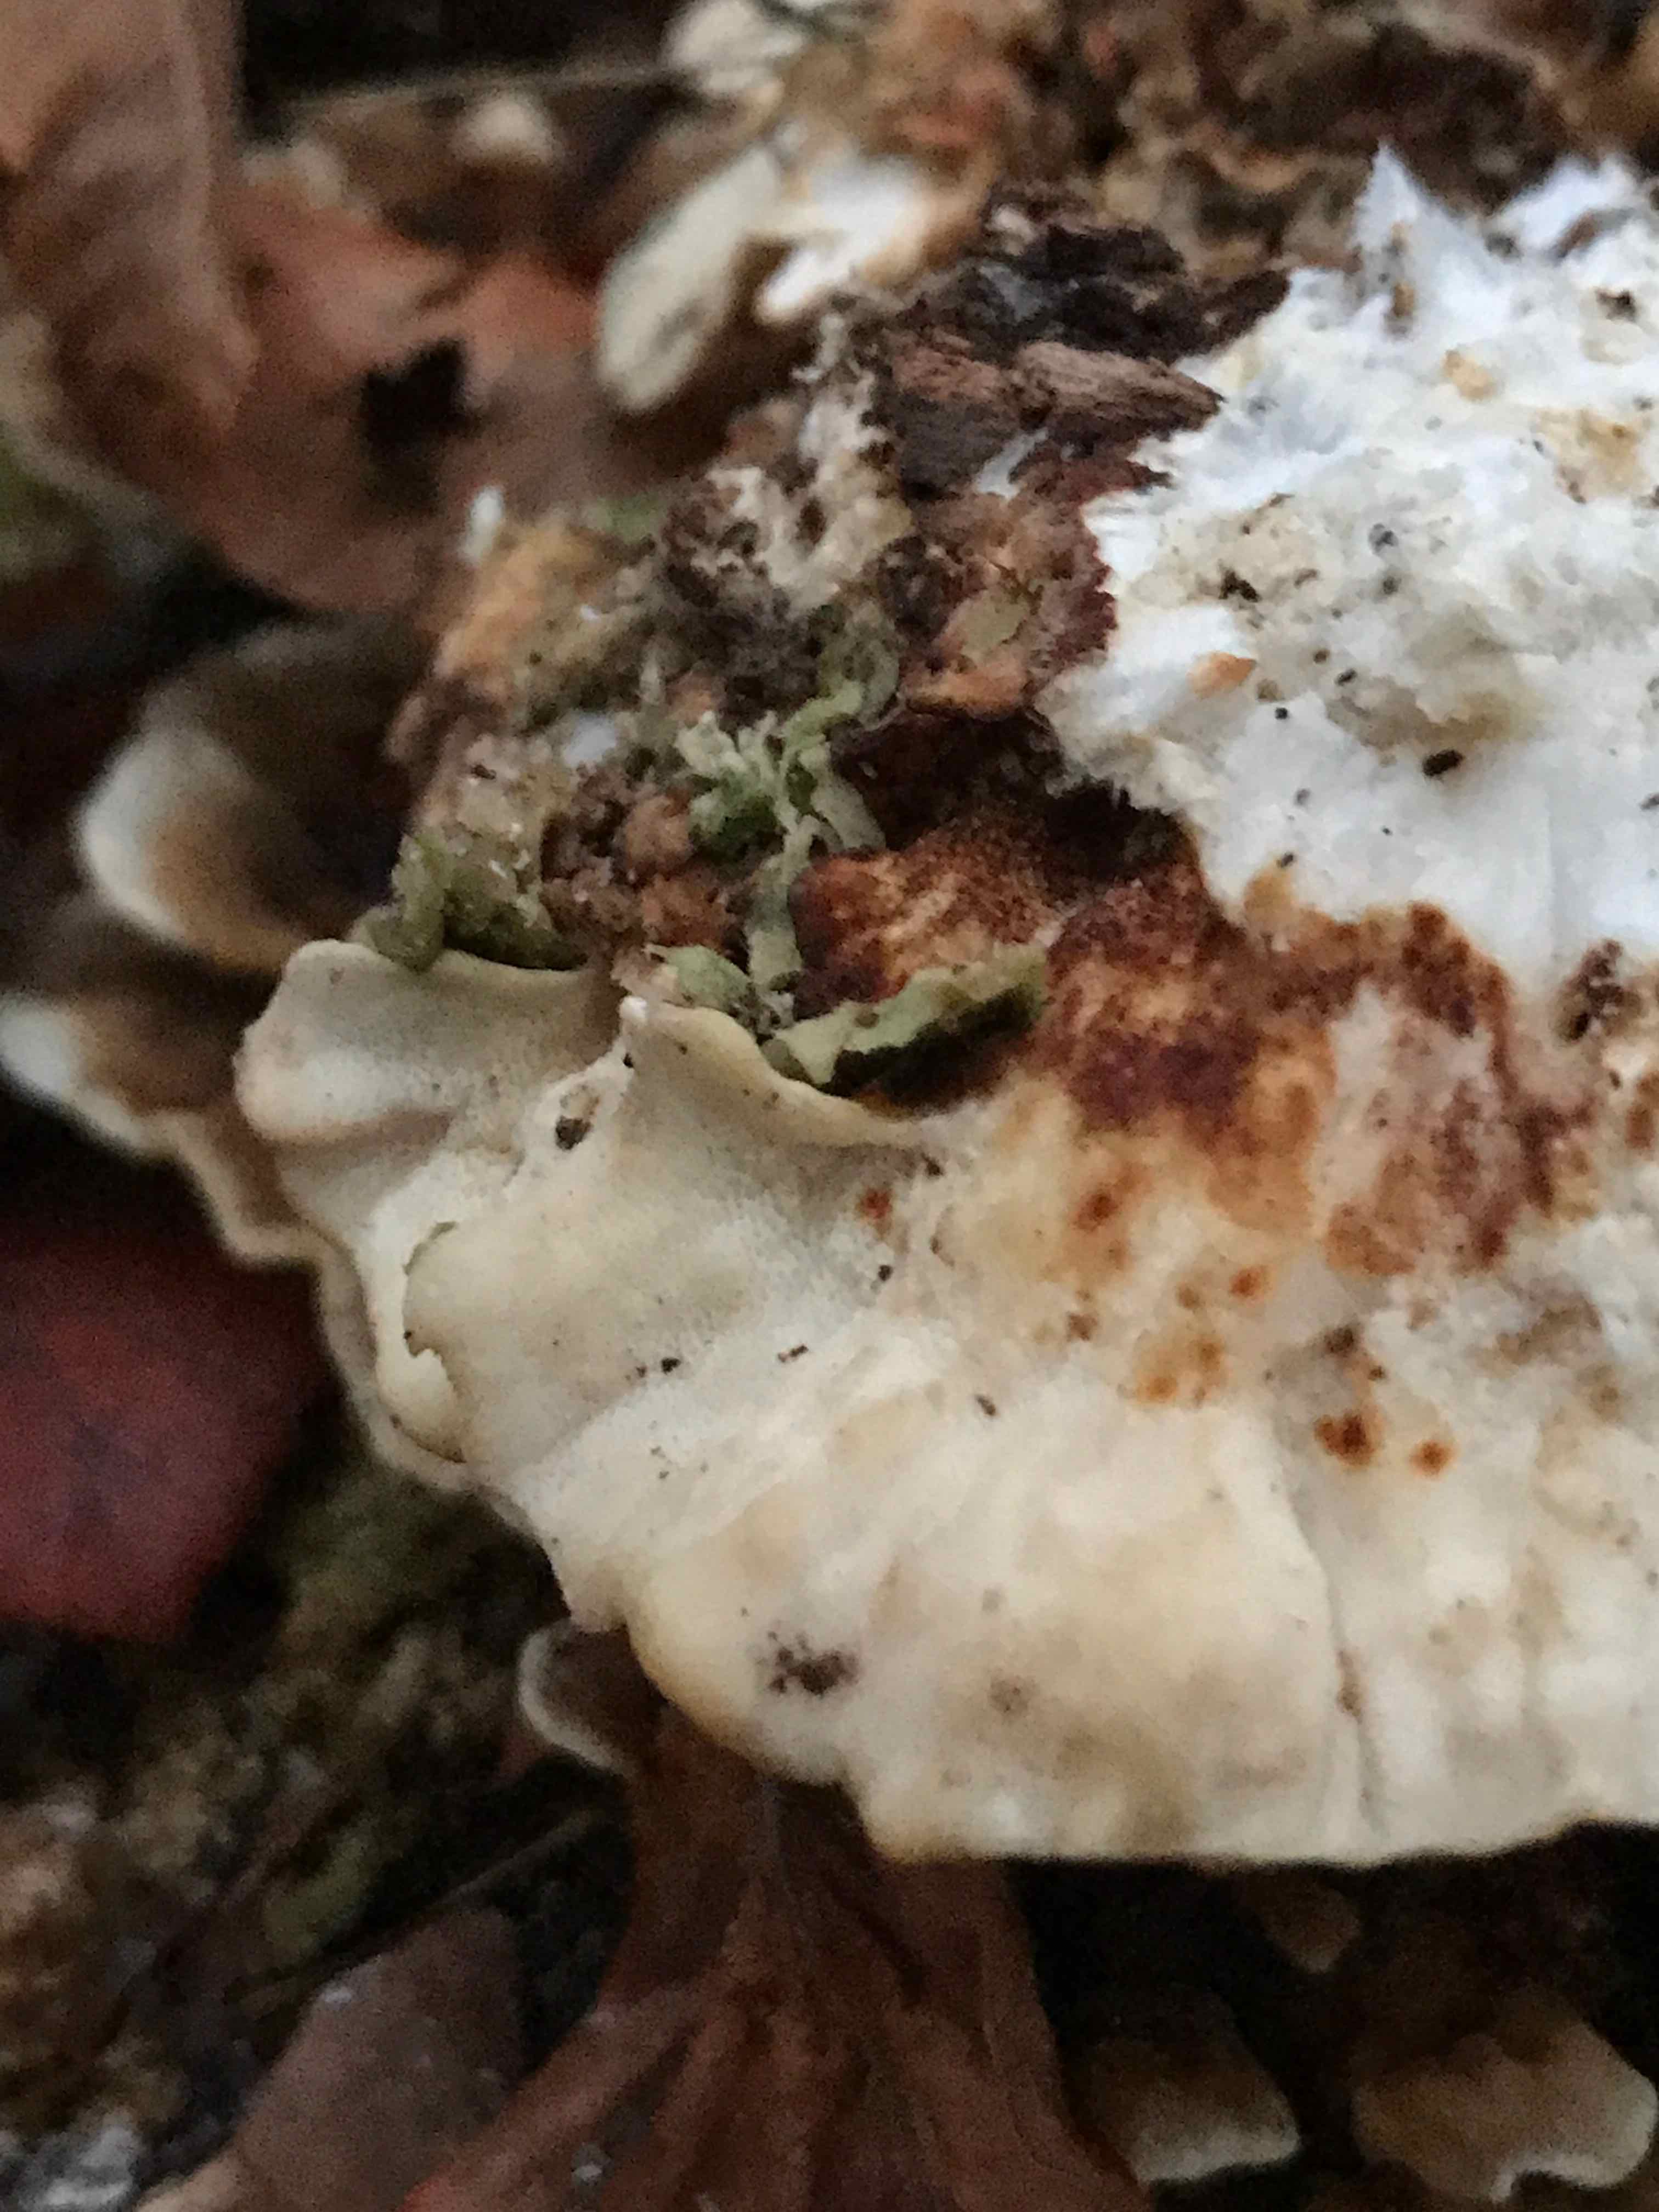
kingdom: Fungi
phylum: Basidiomycota
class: Agaricomycetes
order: Polyporales
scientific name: Polyporales
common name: poresvampordenen
